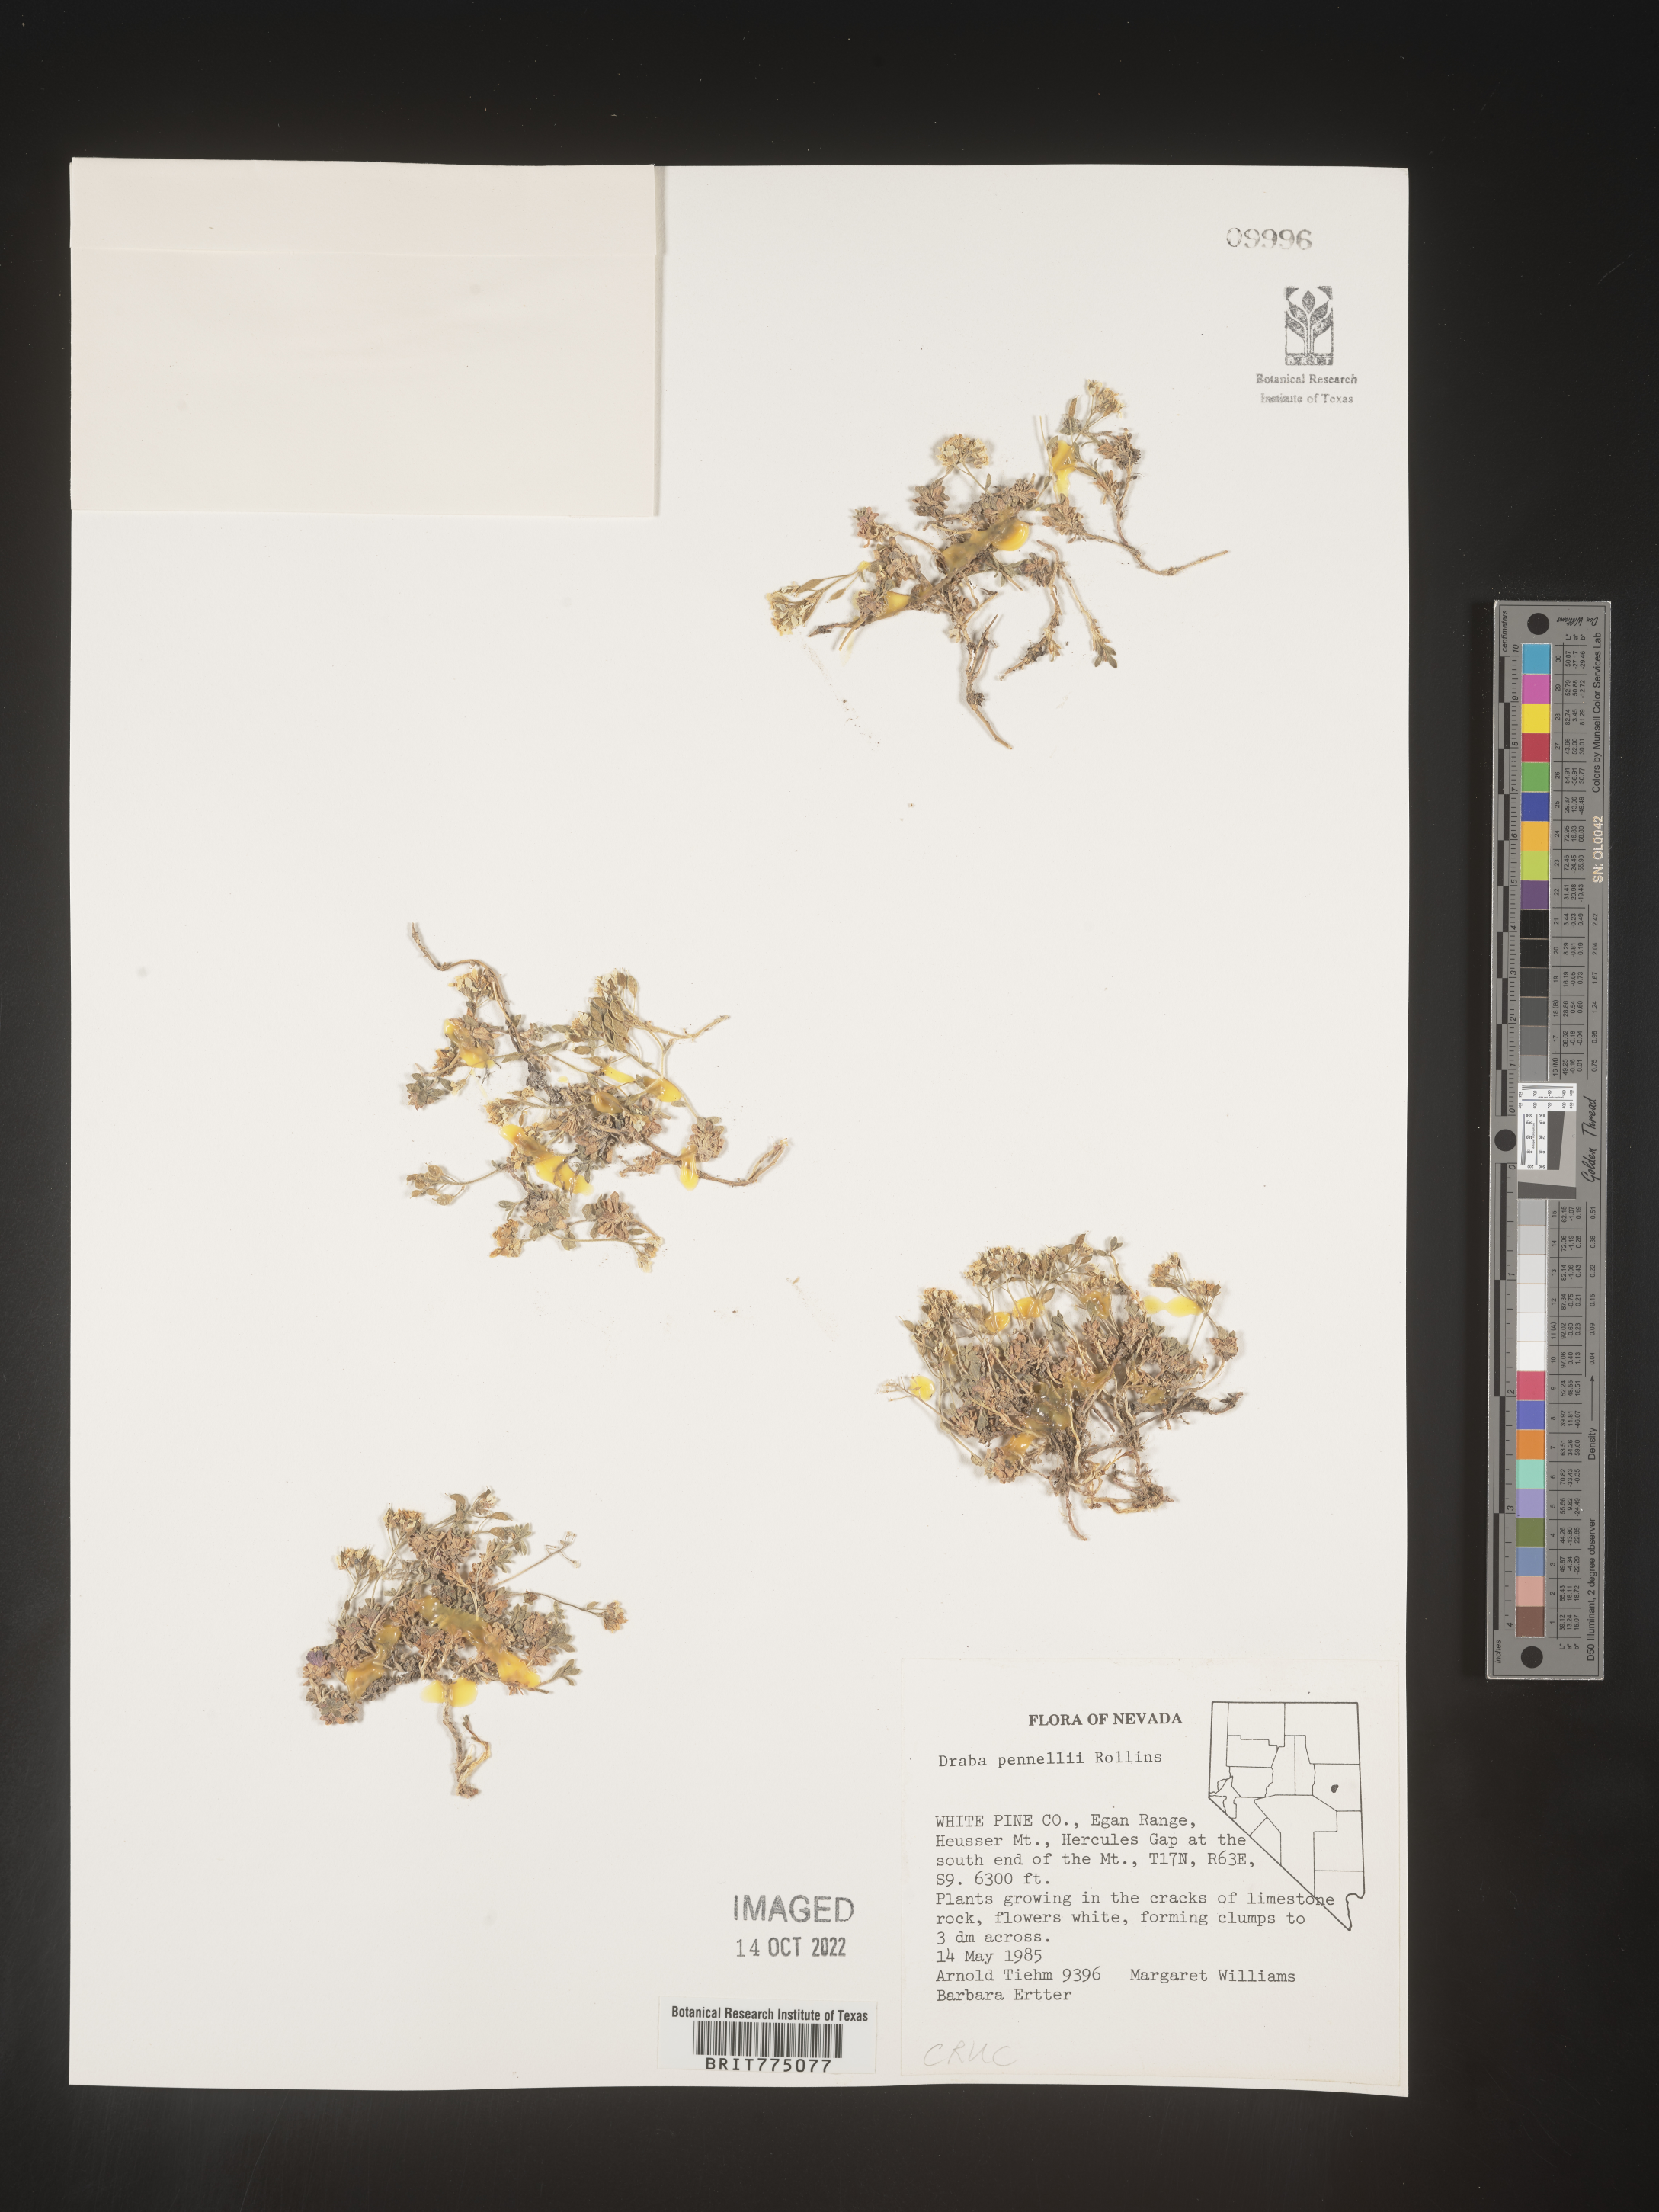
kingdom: Plantae
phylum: Tracheophyta
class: Magnoliopsida
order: Brassicales
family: Brassicaceae
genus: Draba
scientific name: Draba
